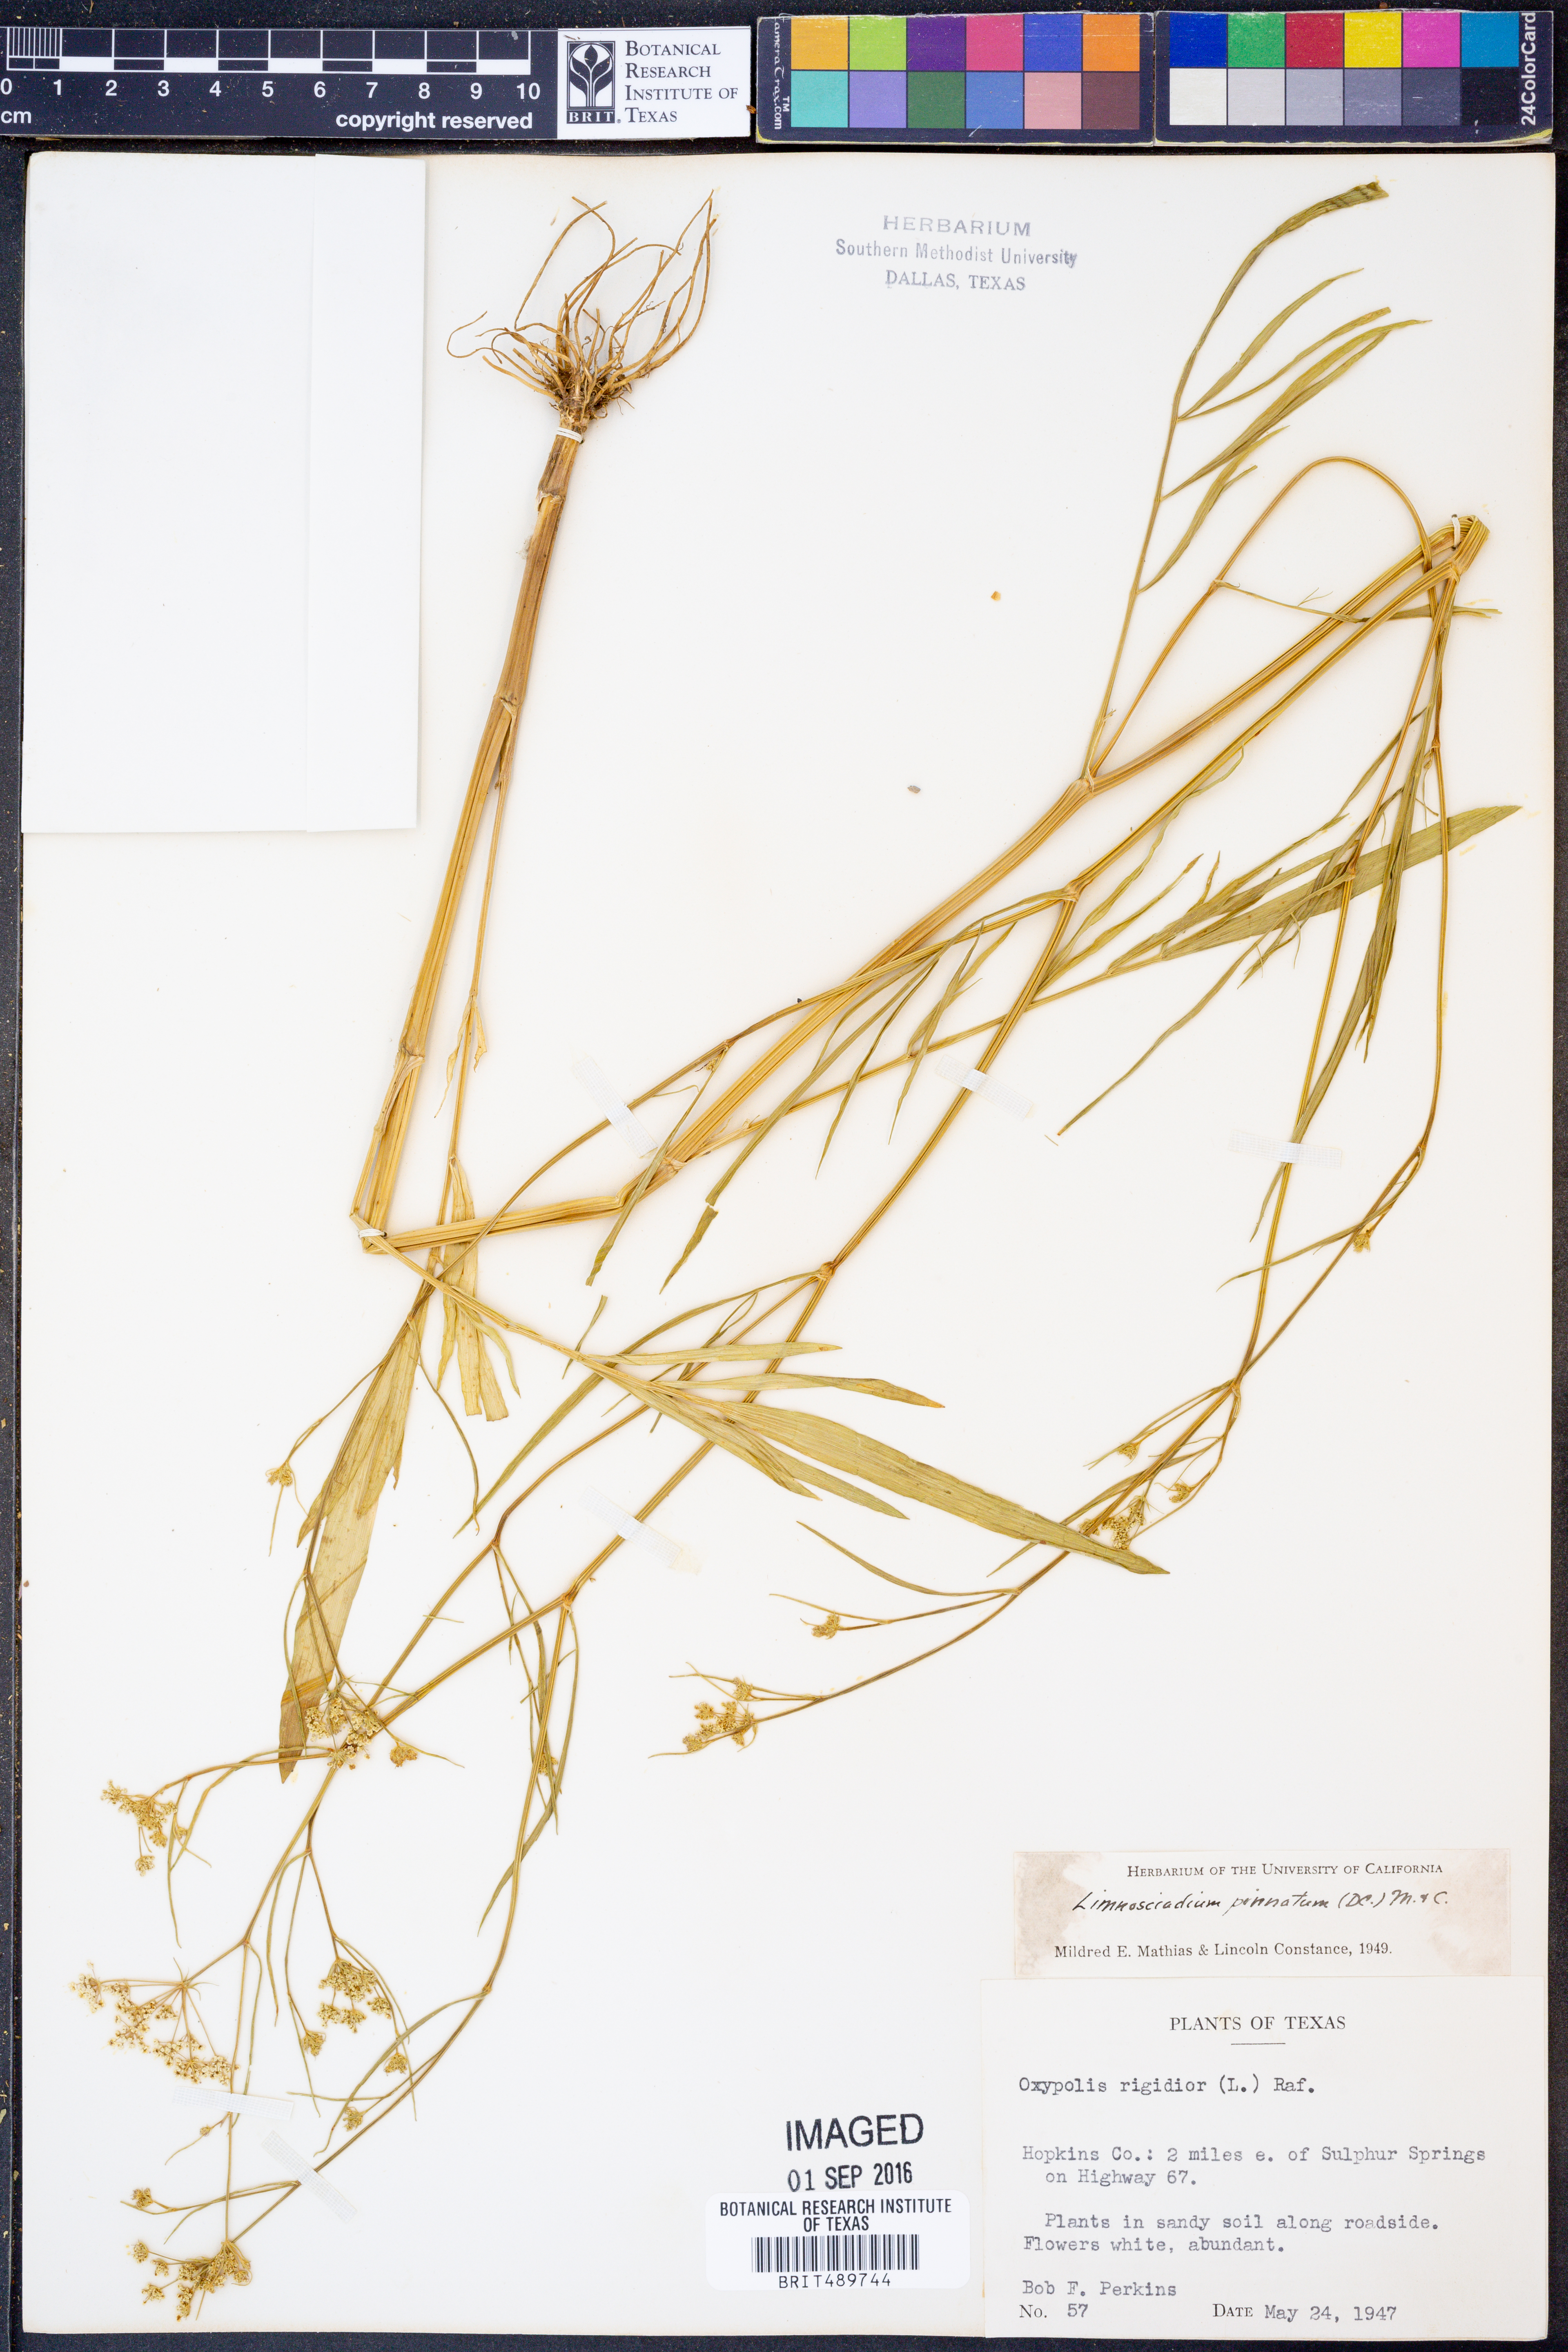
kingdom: Plantae
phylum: Tracheophyta
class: Magnoliopsida
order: Apiales
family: Apiaceae
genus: Limnosciadium
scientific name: Limnosciadium pinnatum
